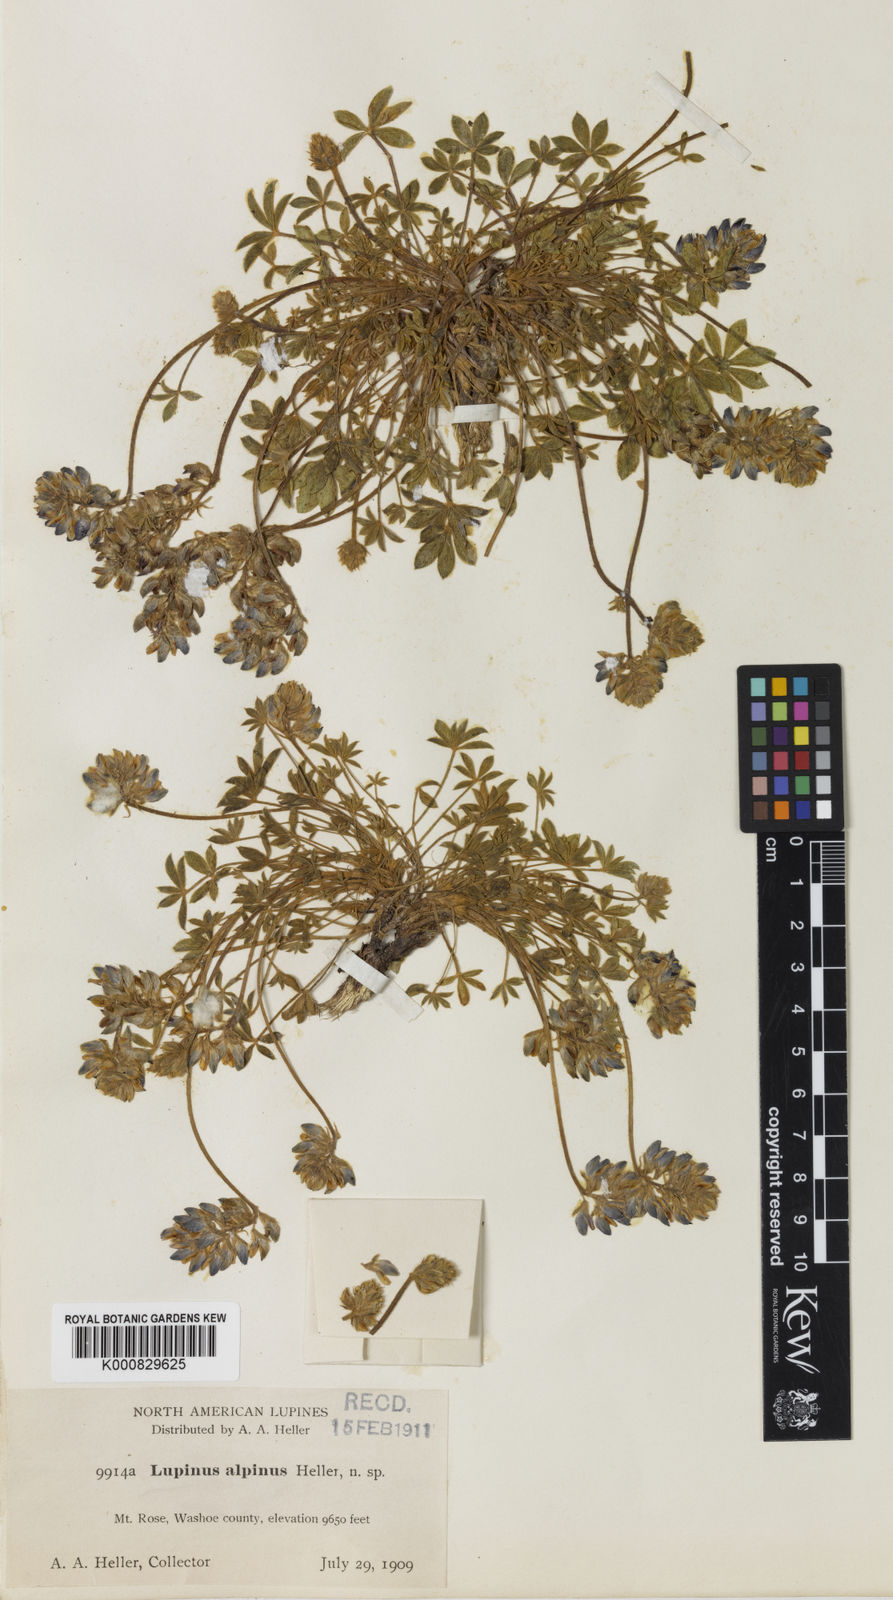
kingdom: Plantae
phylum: Tracheophyta
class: Magnoliopsida
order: Fabales
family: Fabaceae
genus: Lupinus
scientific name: Lupinus lyallii
